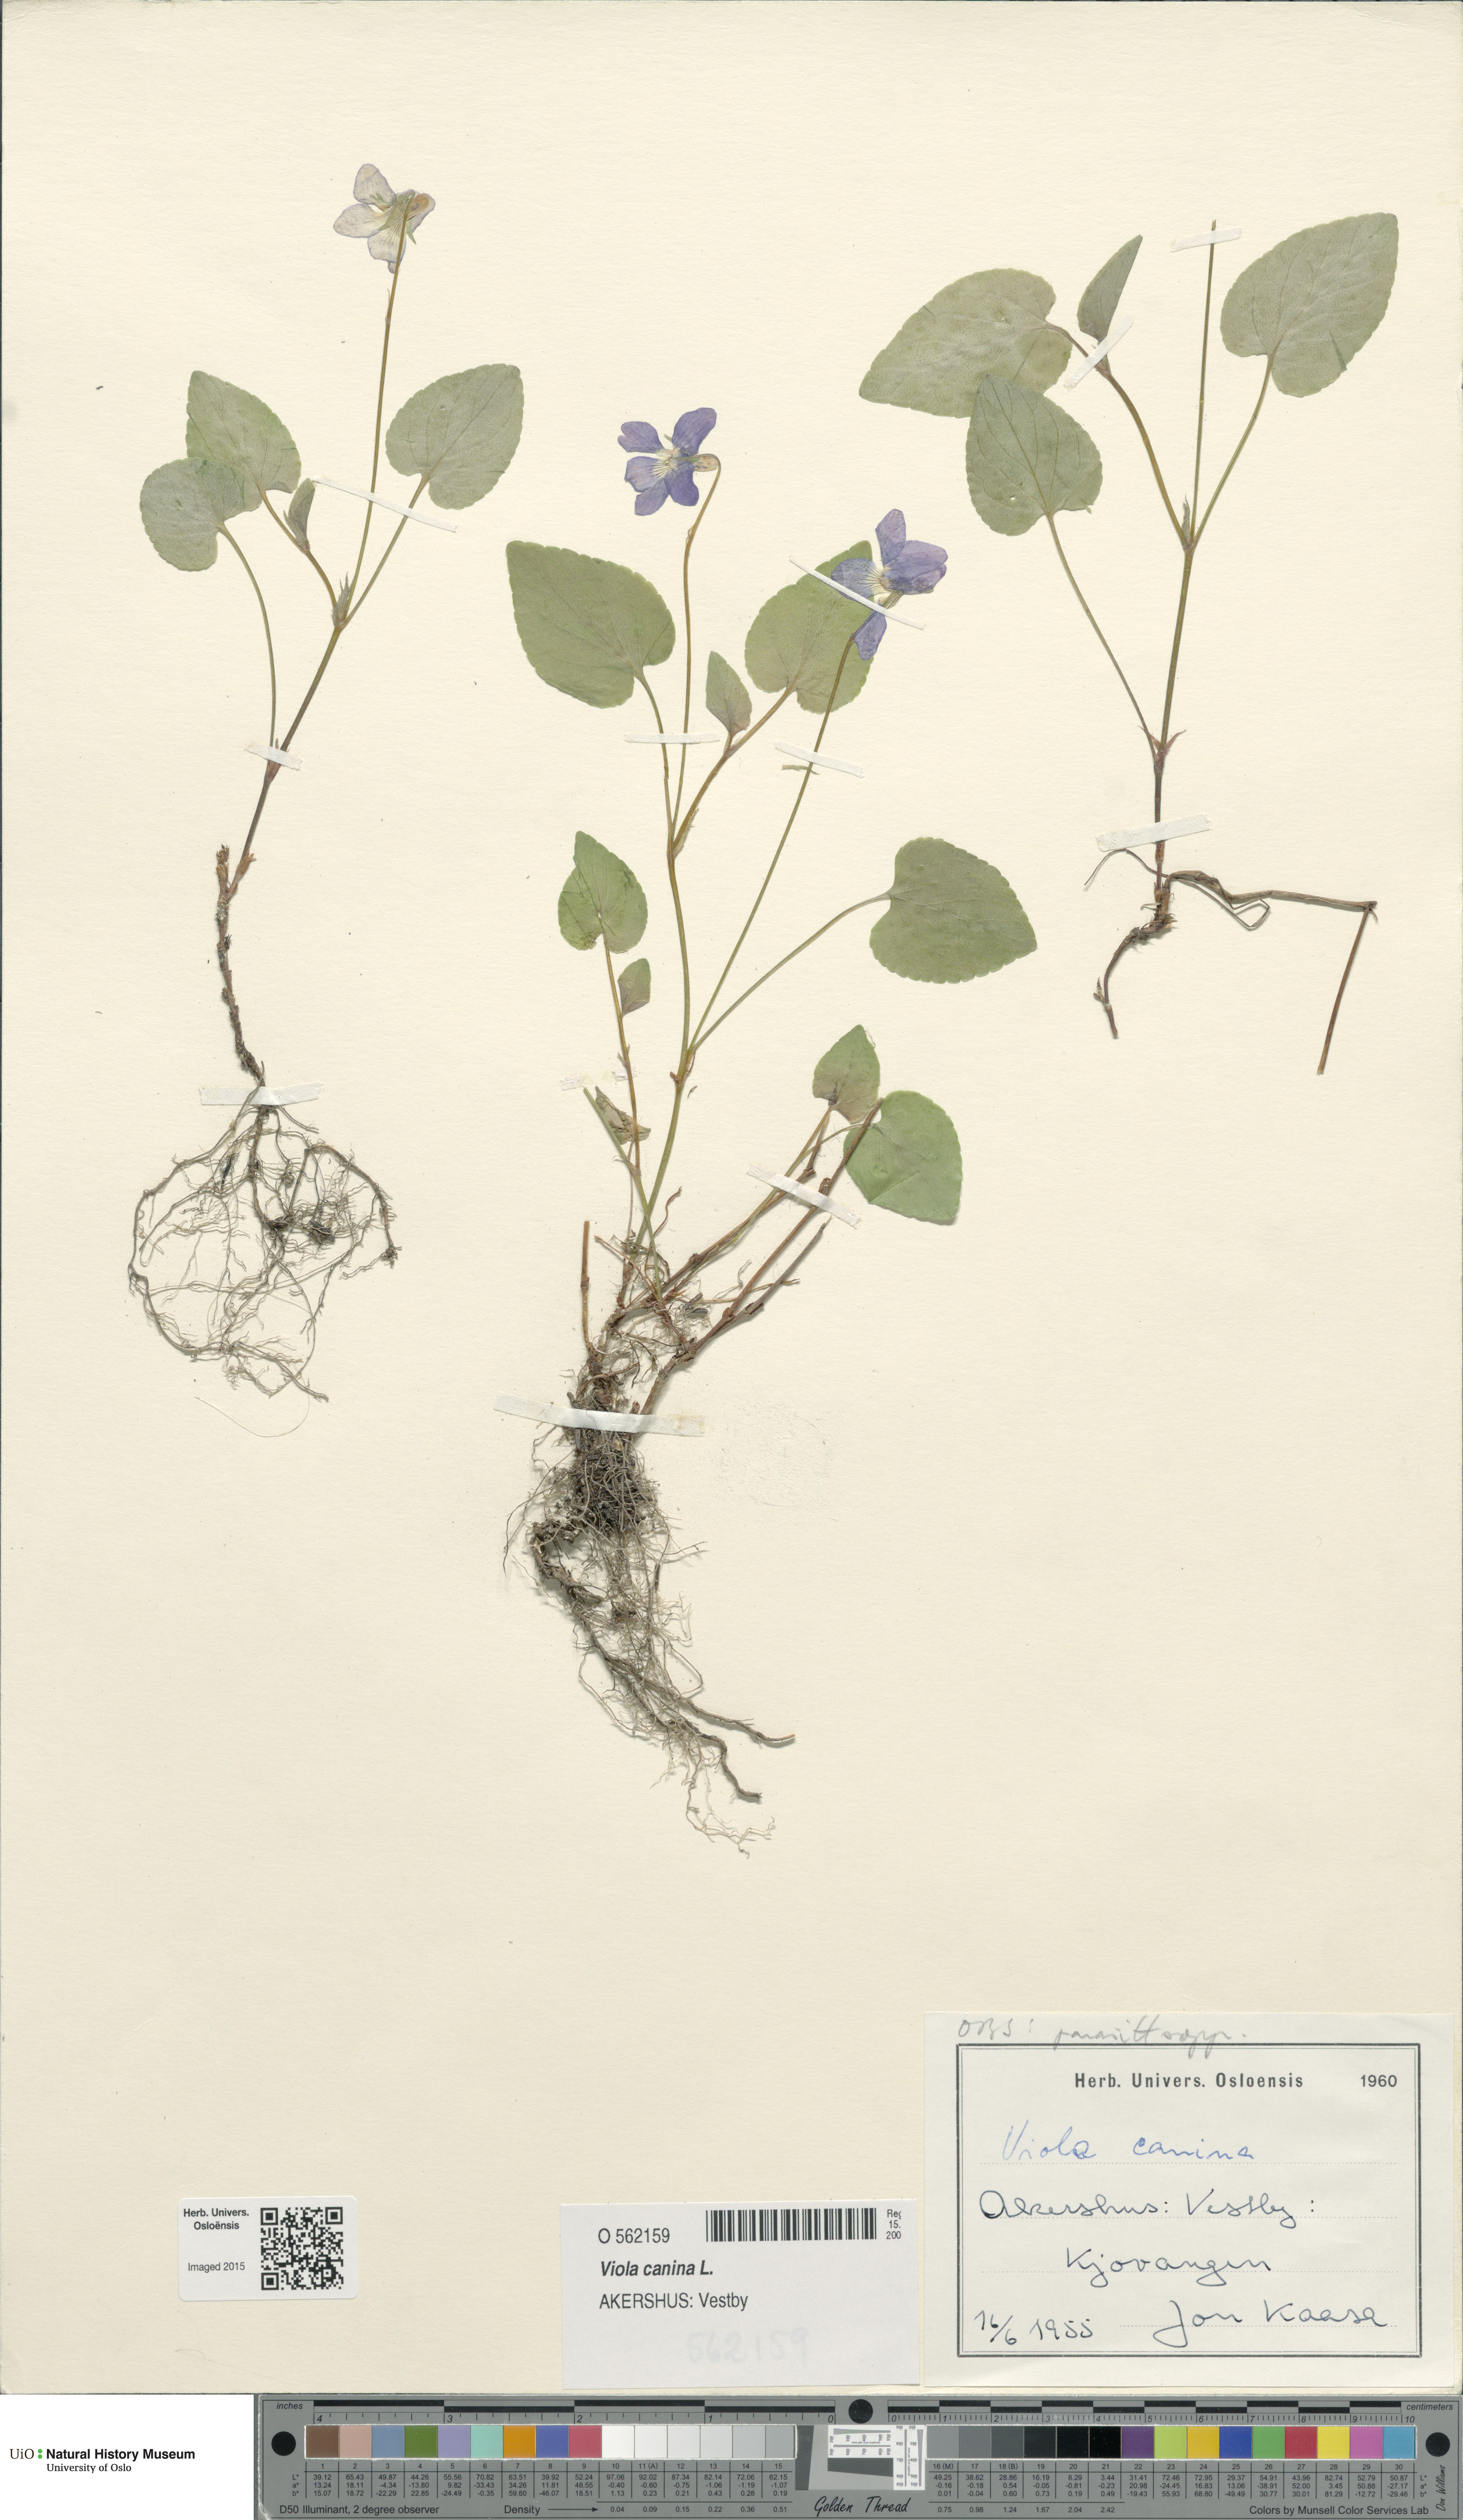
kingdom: Plantae
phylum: Tracheophyta
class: Magnoliopsida
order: Malpighiales
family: Violaceae
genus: Viola
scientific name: Viola canina
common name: Heath dog-violet
